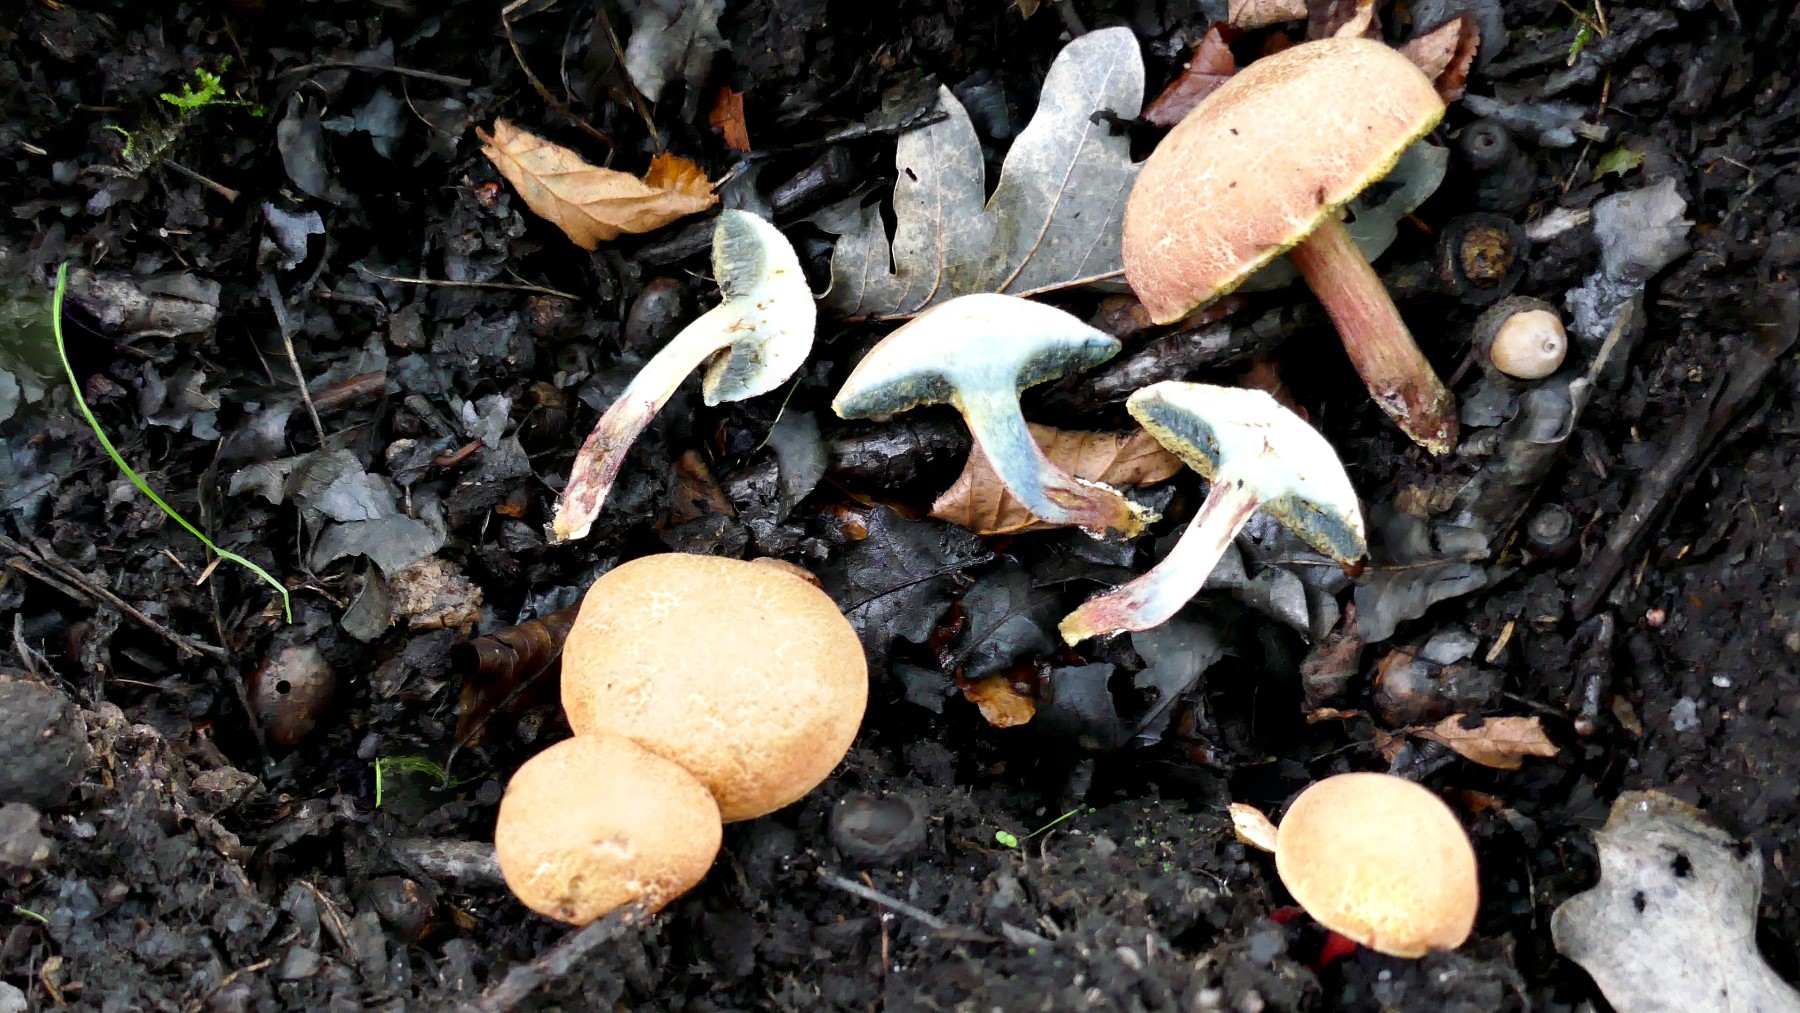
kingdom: Fungi
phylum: Basidiomycota
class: Agaricomycetes
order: Boletales
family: Boletaceae
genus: Xerocomellus
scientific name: Xerocomellus ripariellus
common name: sump-rørhat
